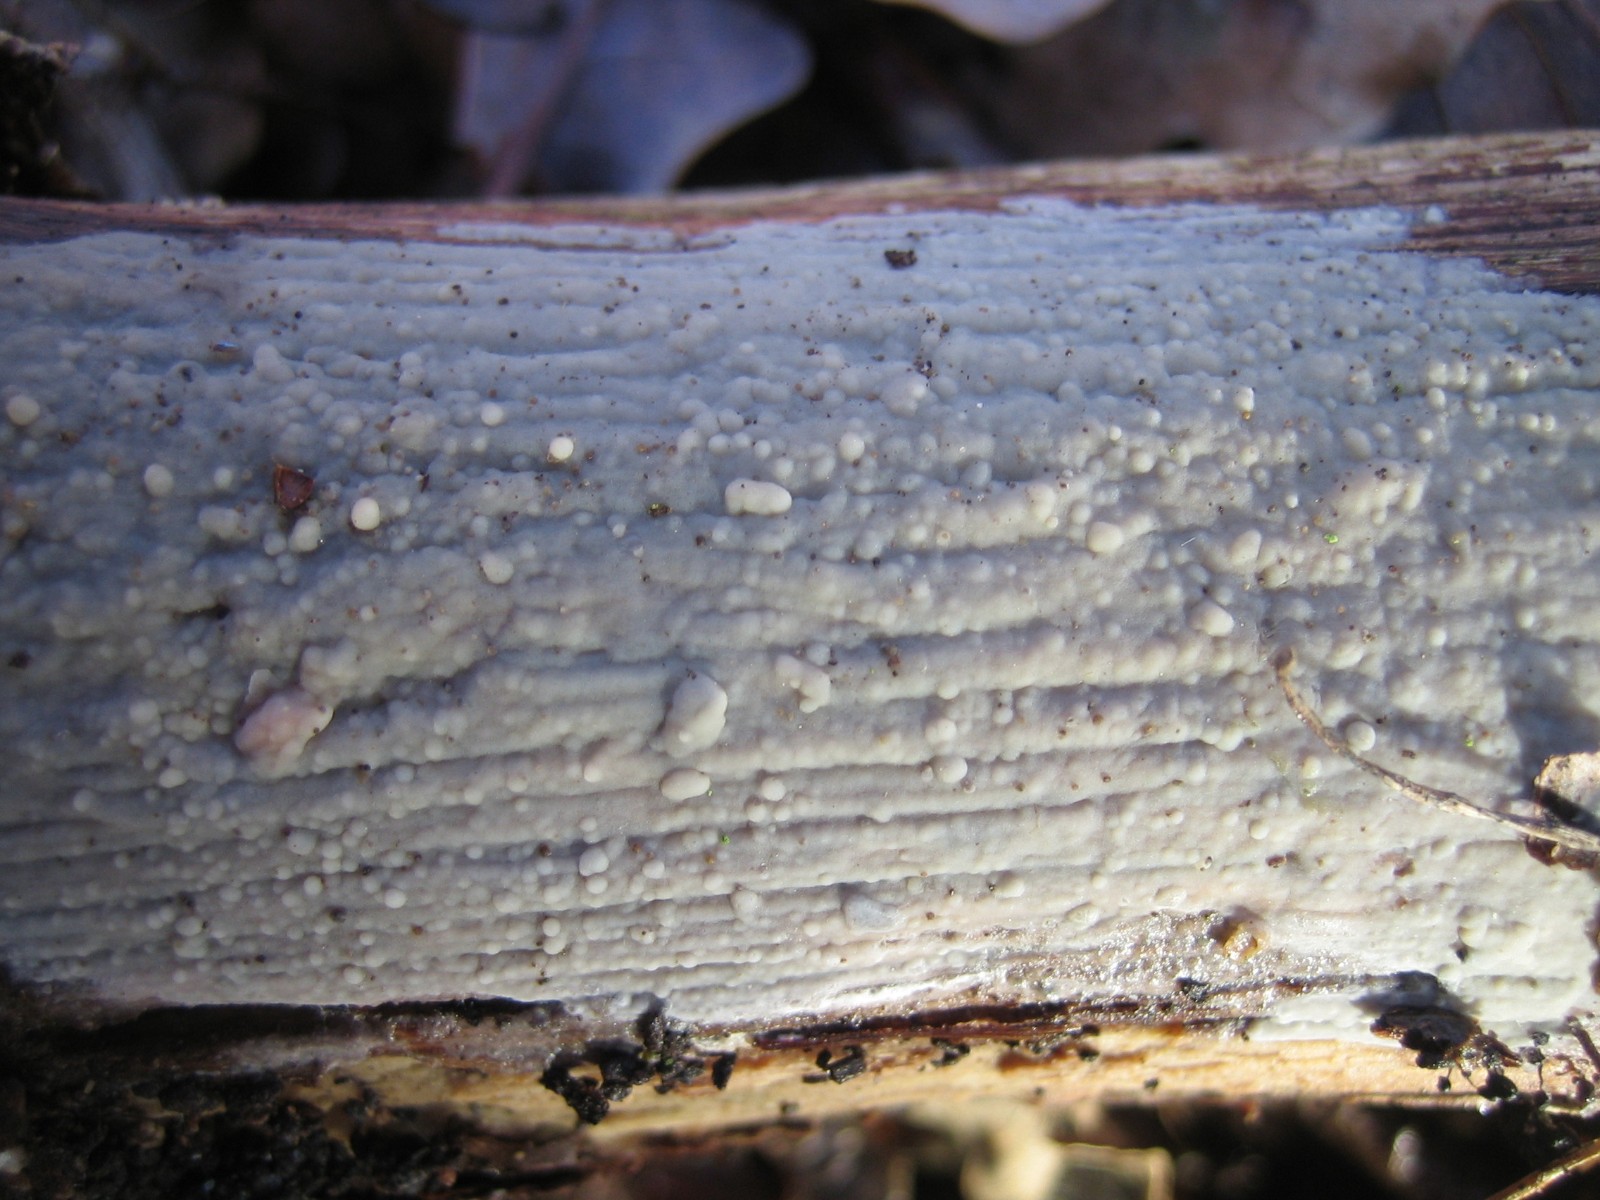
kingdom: Fungi
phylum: Basidiomycota
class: Agaricomycetes
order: Agaricales
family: Radulomycetaceae
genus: Radulomyces
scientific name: Radulomyces confluens
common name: glat naftalinskind
